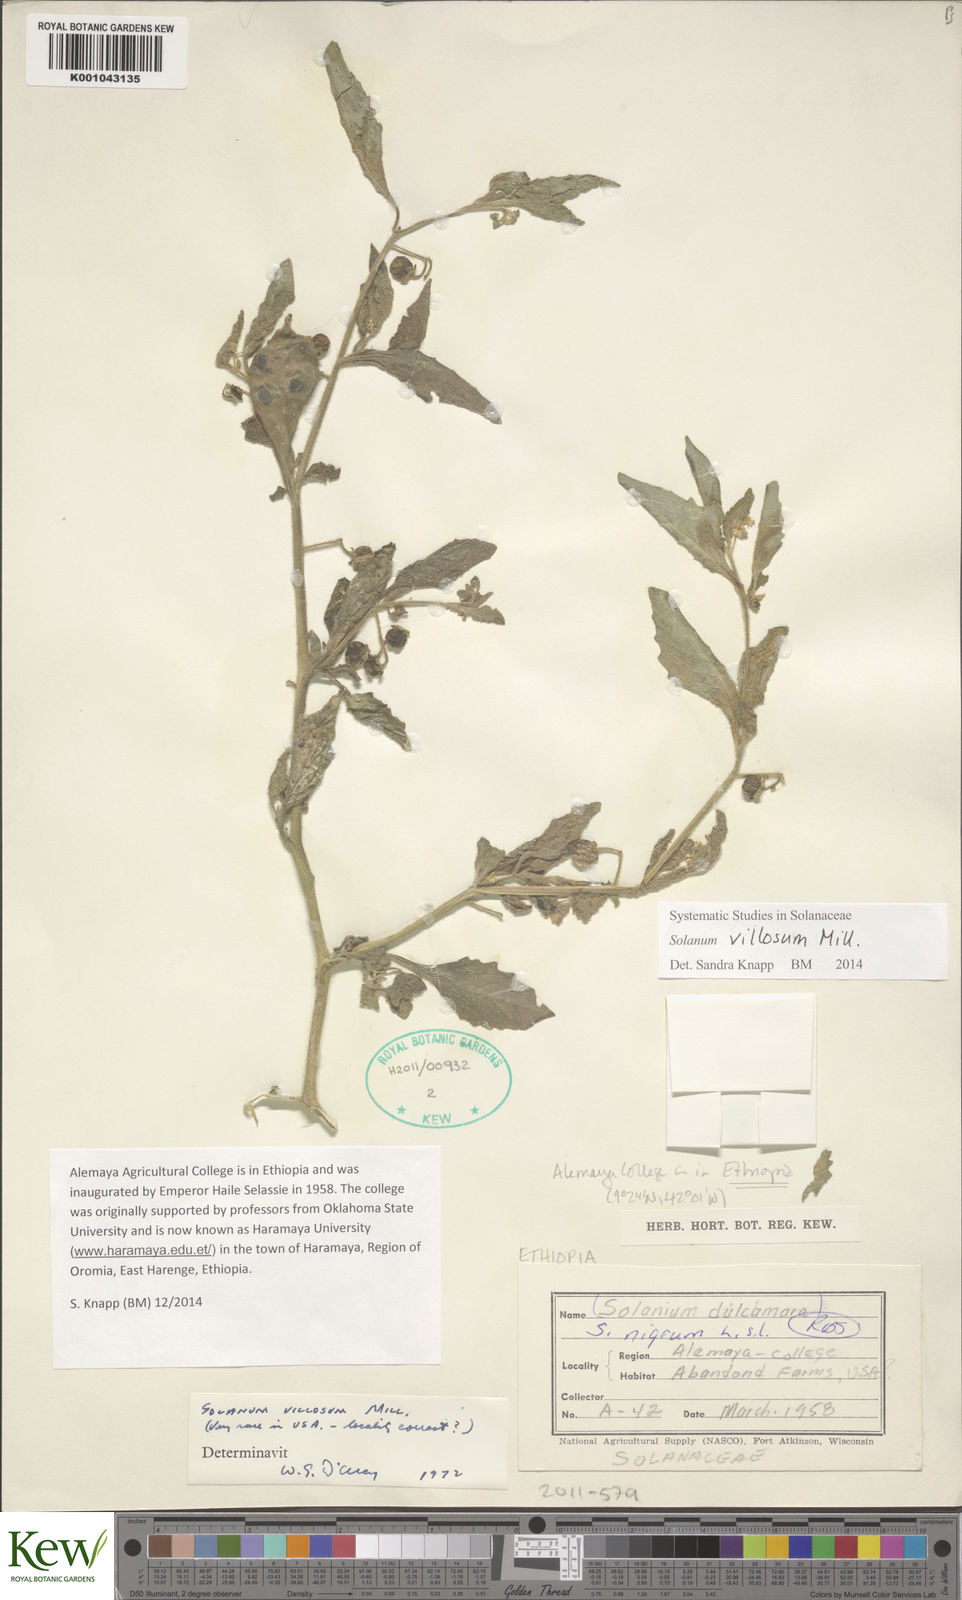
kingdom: Plantae
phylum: Tracheophyta
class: Magnoliopsida
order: Solanales
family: Solanaceae
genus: Solanum
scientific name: Solanum memphiticum
